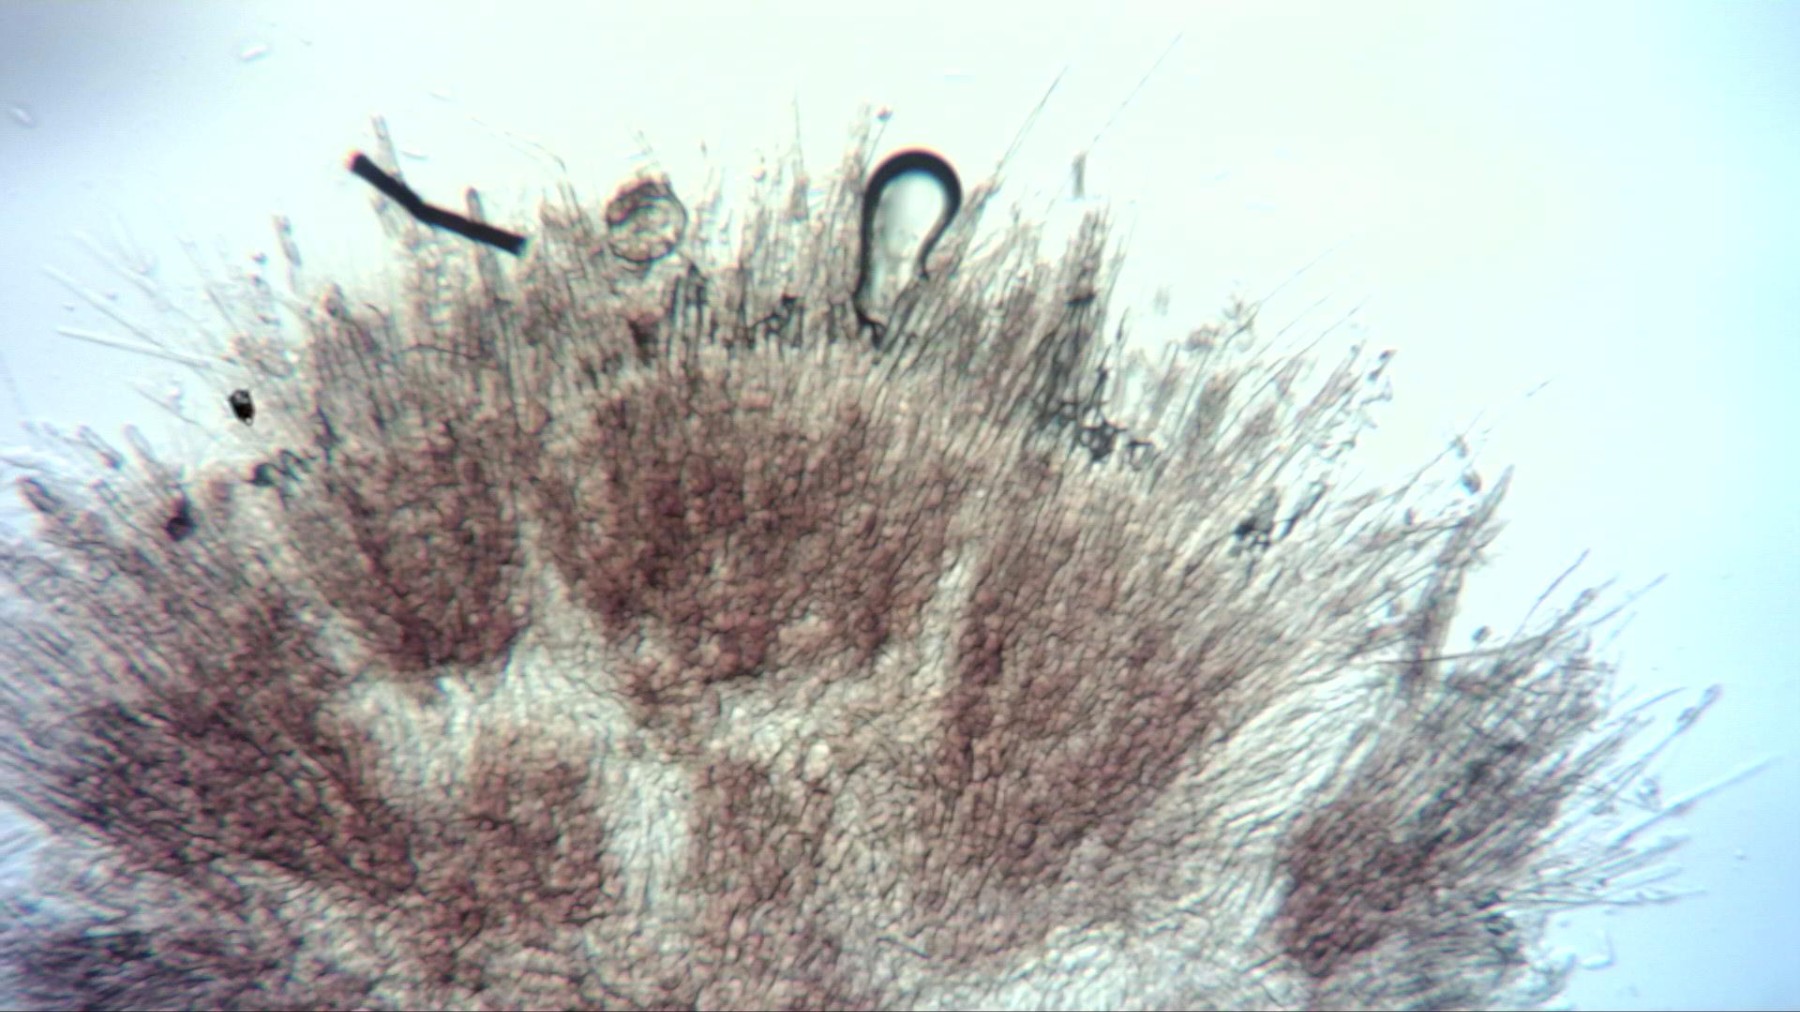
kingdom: Fungi
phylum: Ascomycota
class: Leotiomycetes
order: Helotiales
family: Hyaloscyphaceae
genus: Protounguicularia
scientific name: Protounguicularia transiens
